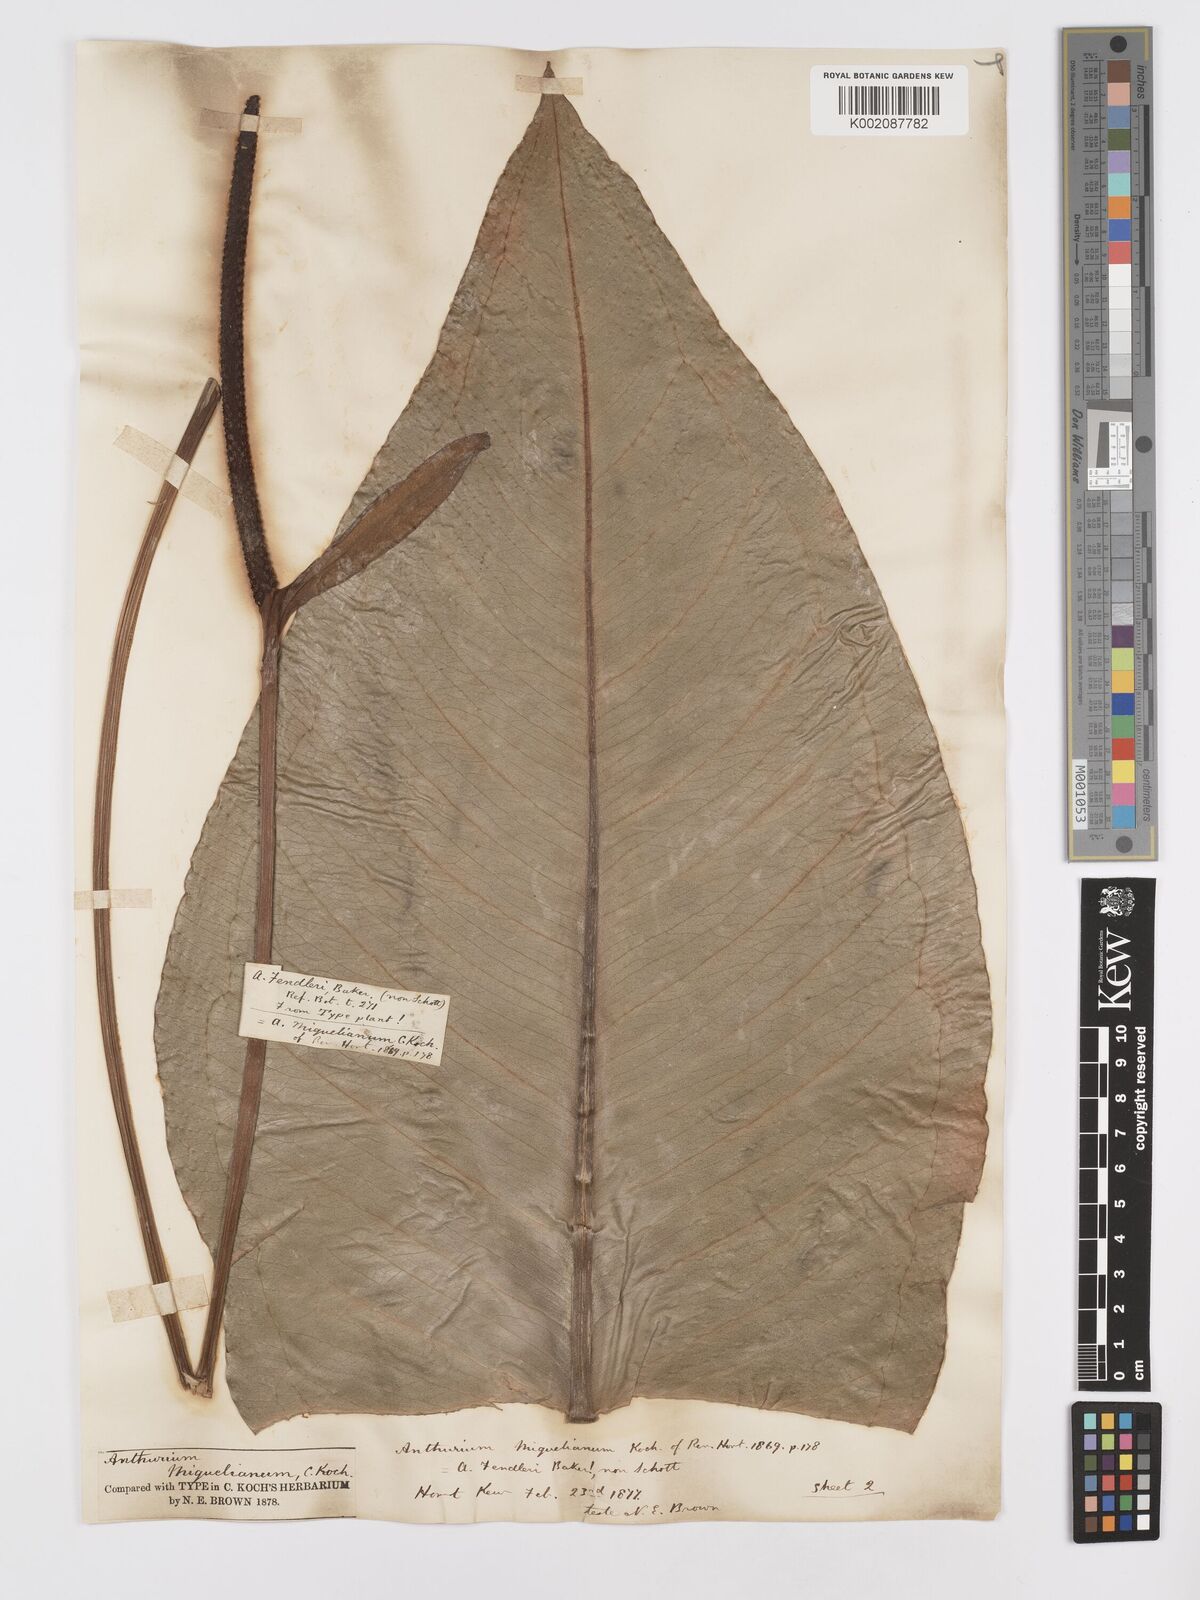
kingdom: Plantae
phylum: Tracheophyta
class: Liliopsida
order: Alismatales
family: Araceae
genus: Anthurium
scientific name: Anthurium parasiticum
